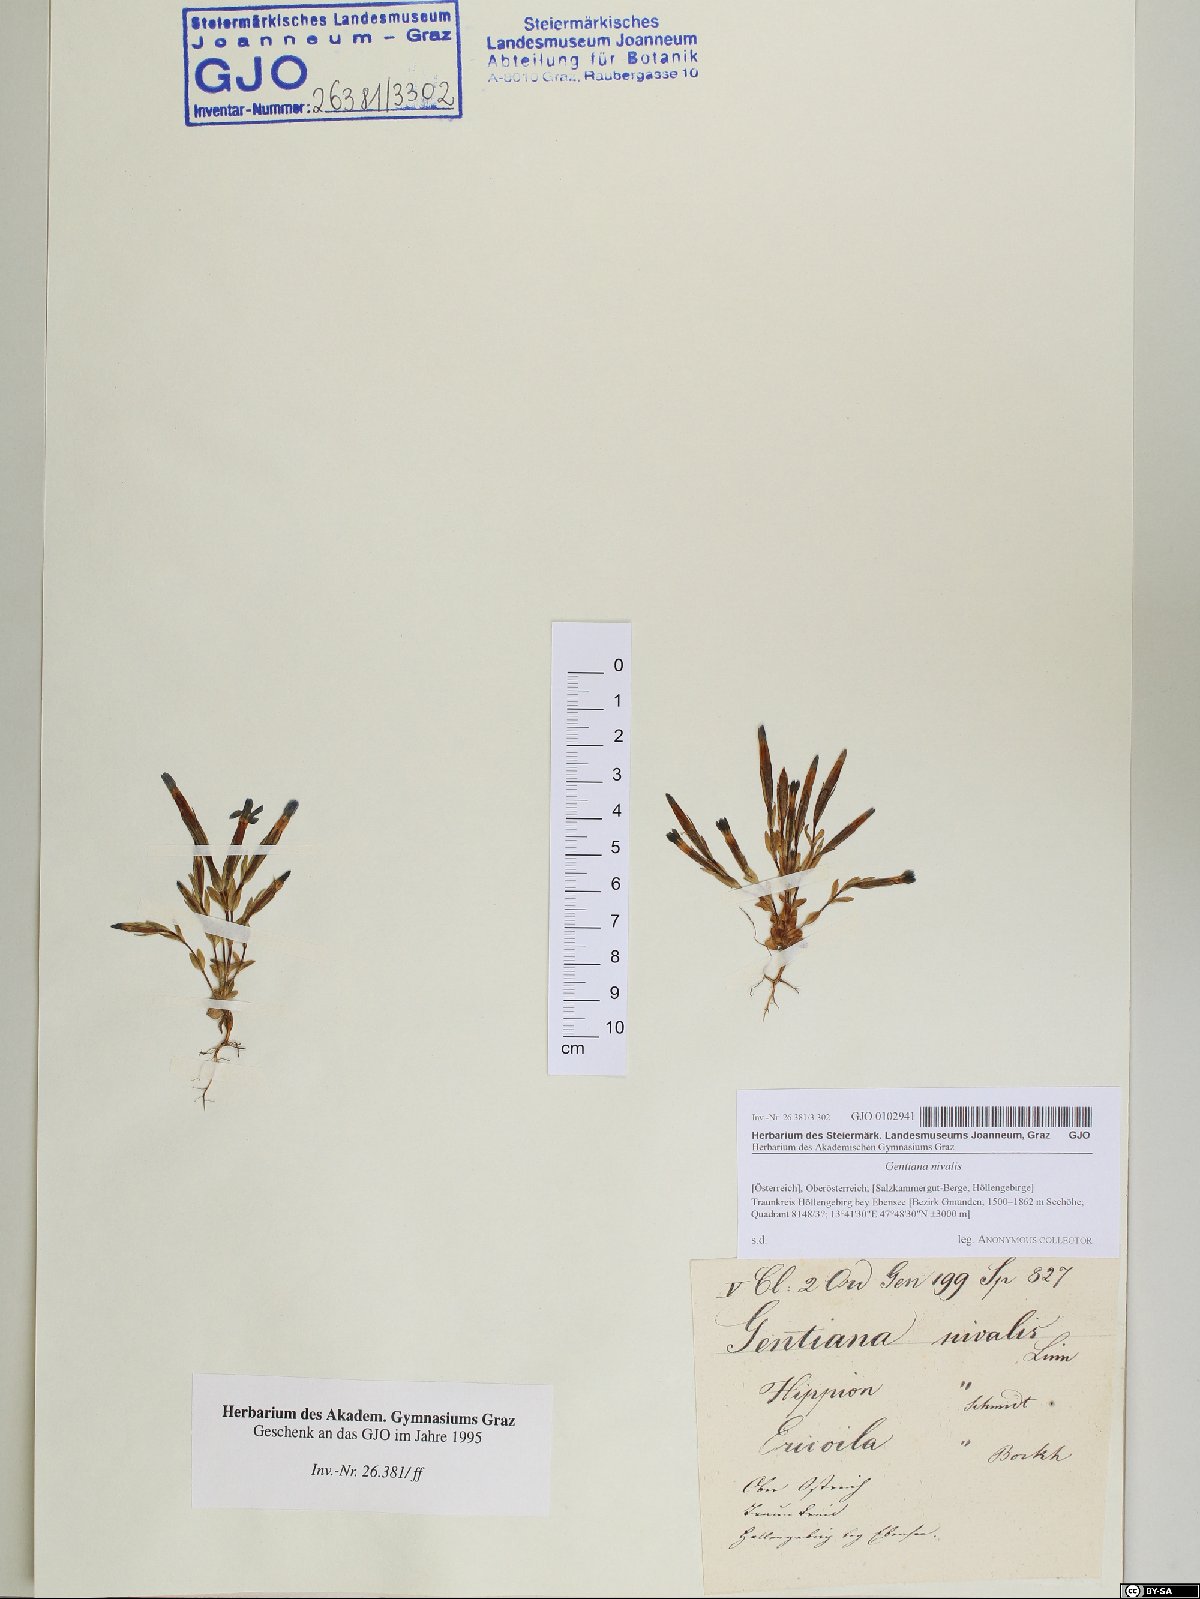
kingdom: Plantae
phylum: Tracheophyta
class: Magnoliopsida
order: Gentianales
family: Gentianaceae
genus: Gentiana
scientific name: Gentiana nivalis
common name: Alpine gentian
